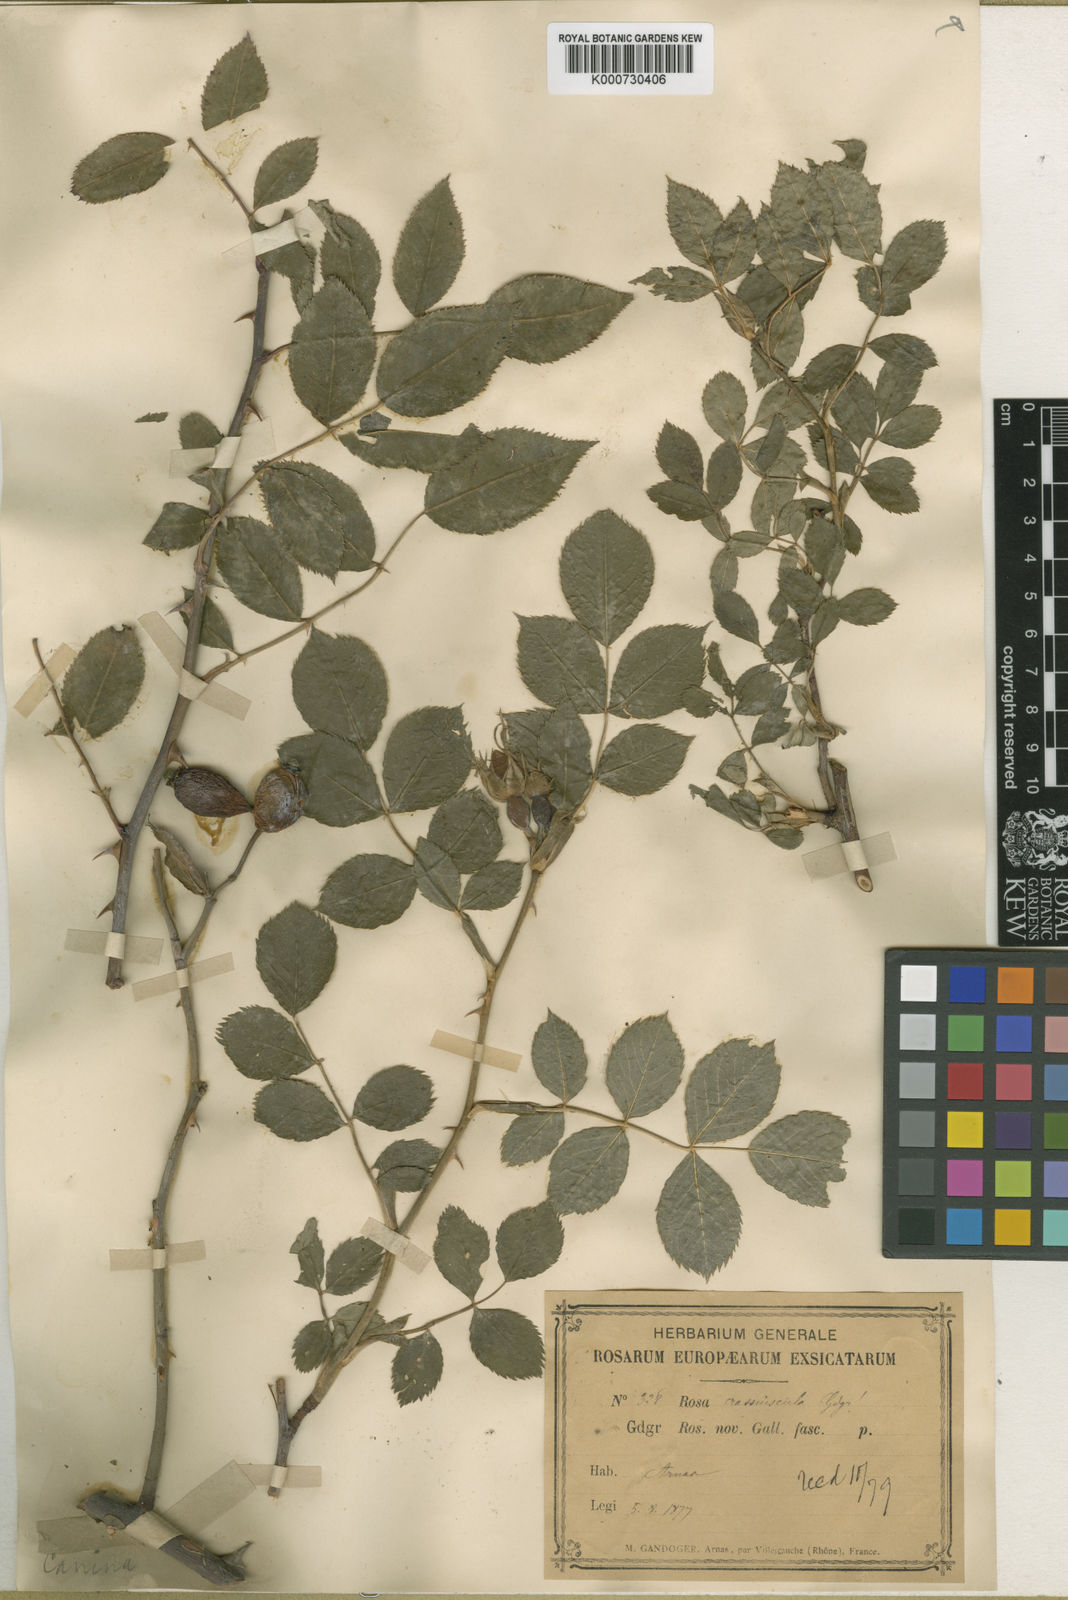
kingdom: Plantae
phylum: Tracheophyta
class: Magnoliopsida
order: Rosales
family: Rosaceae
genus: Rosa
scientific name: Rosa canina
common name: Dog rose
